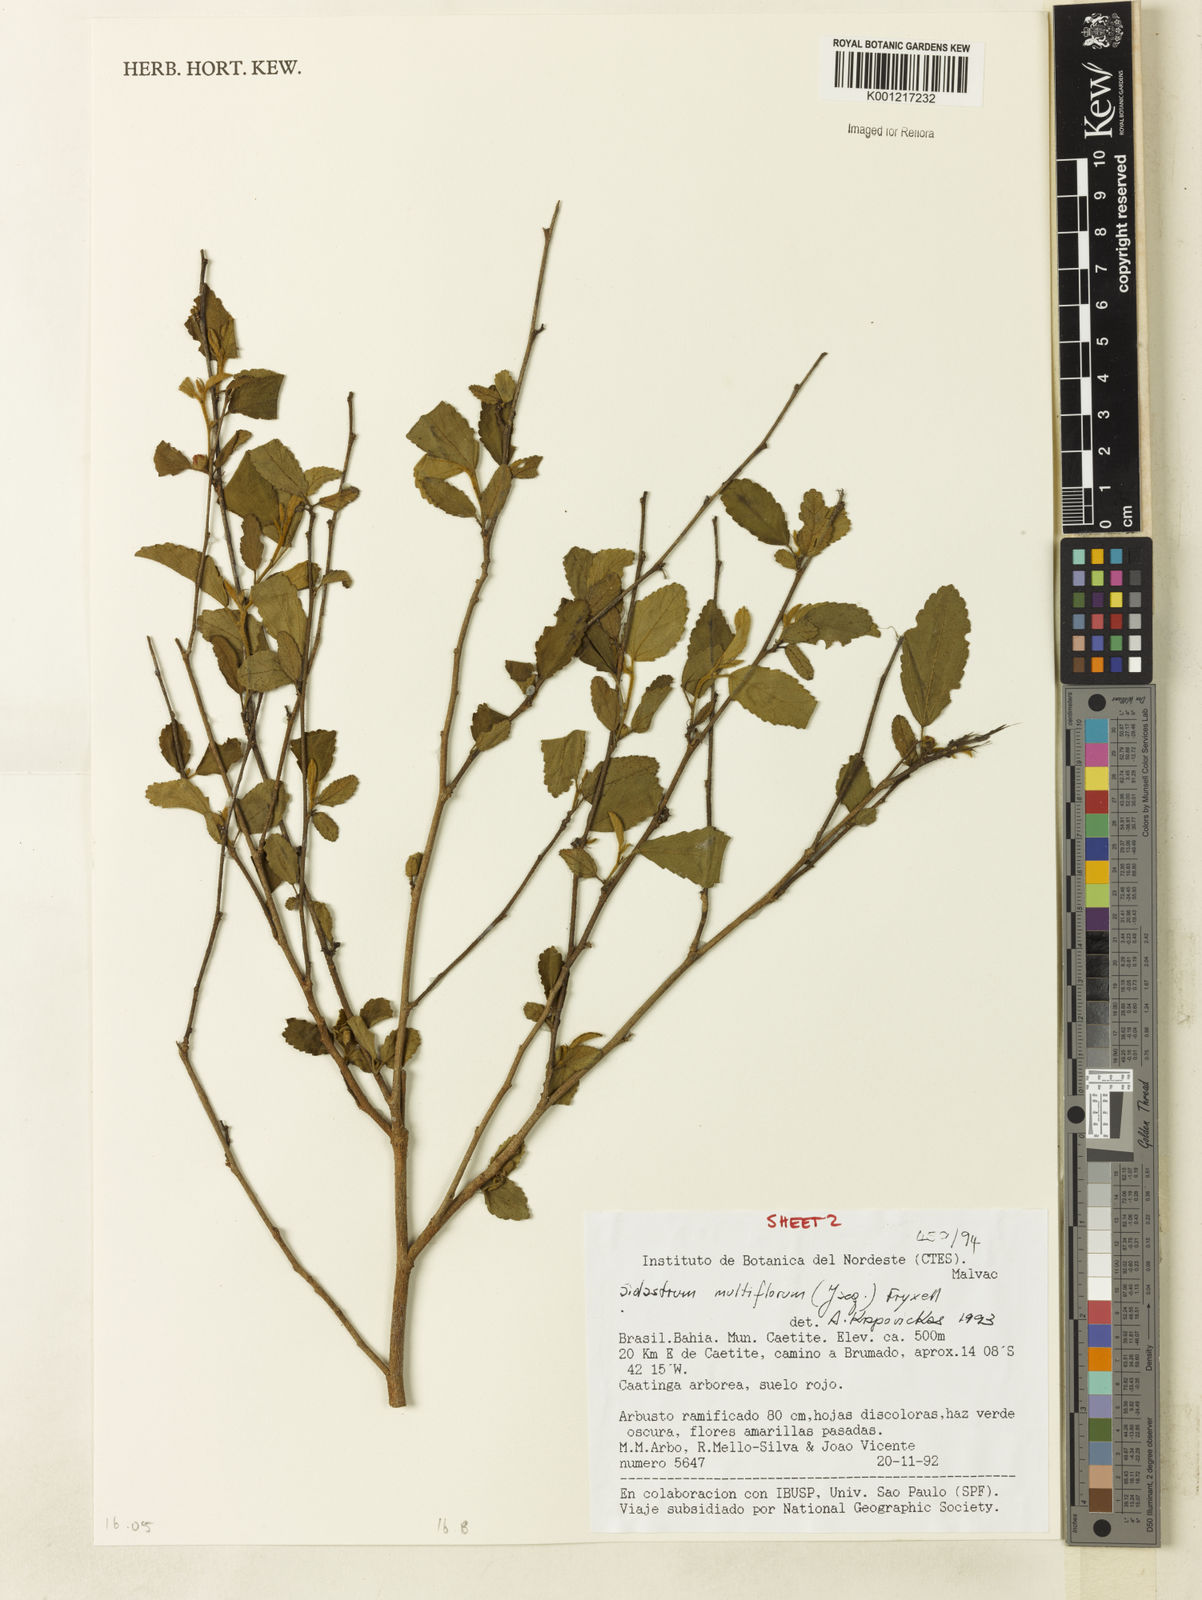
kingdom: Plantae
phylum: Tracheophyta
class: Magnoliopsida
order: Malvales
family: Malvaceae
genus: Sidastrum
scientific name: Sidastrum multiflorum
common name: Manyflower sandmallow
